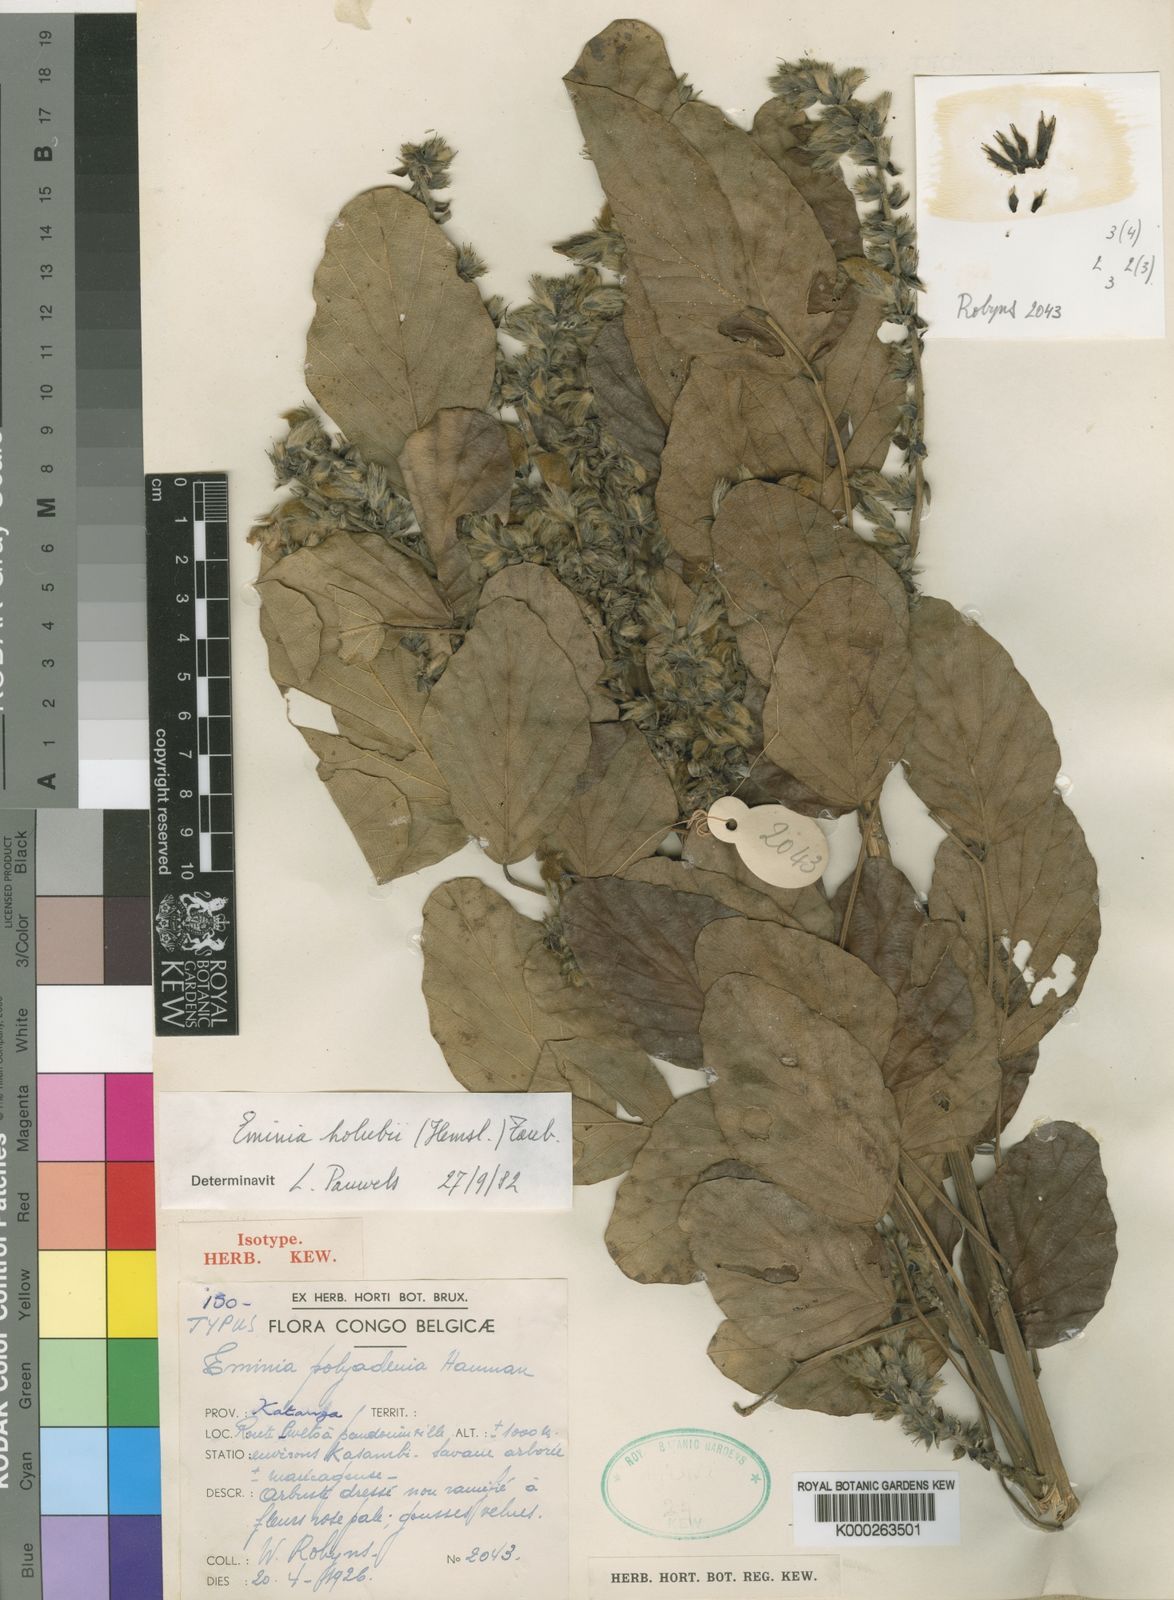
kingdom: Plantae
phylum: Tracheophyta
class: Magnoliopsida
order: Fabales
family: Fabaceae
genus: Eminia
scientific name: Eminia holubii
